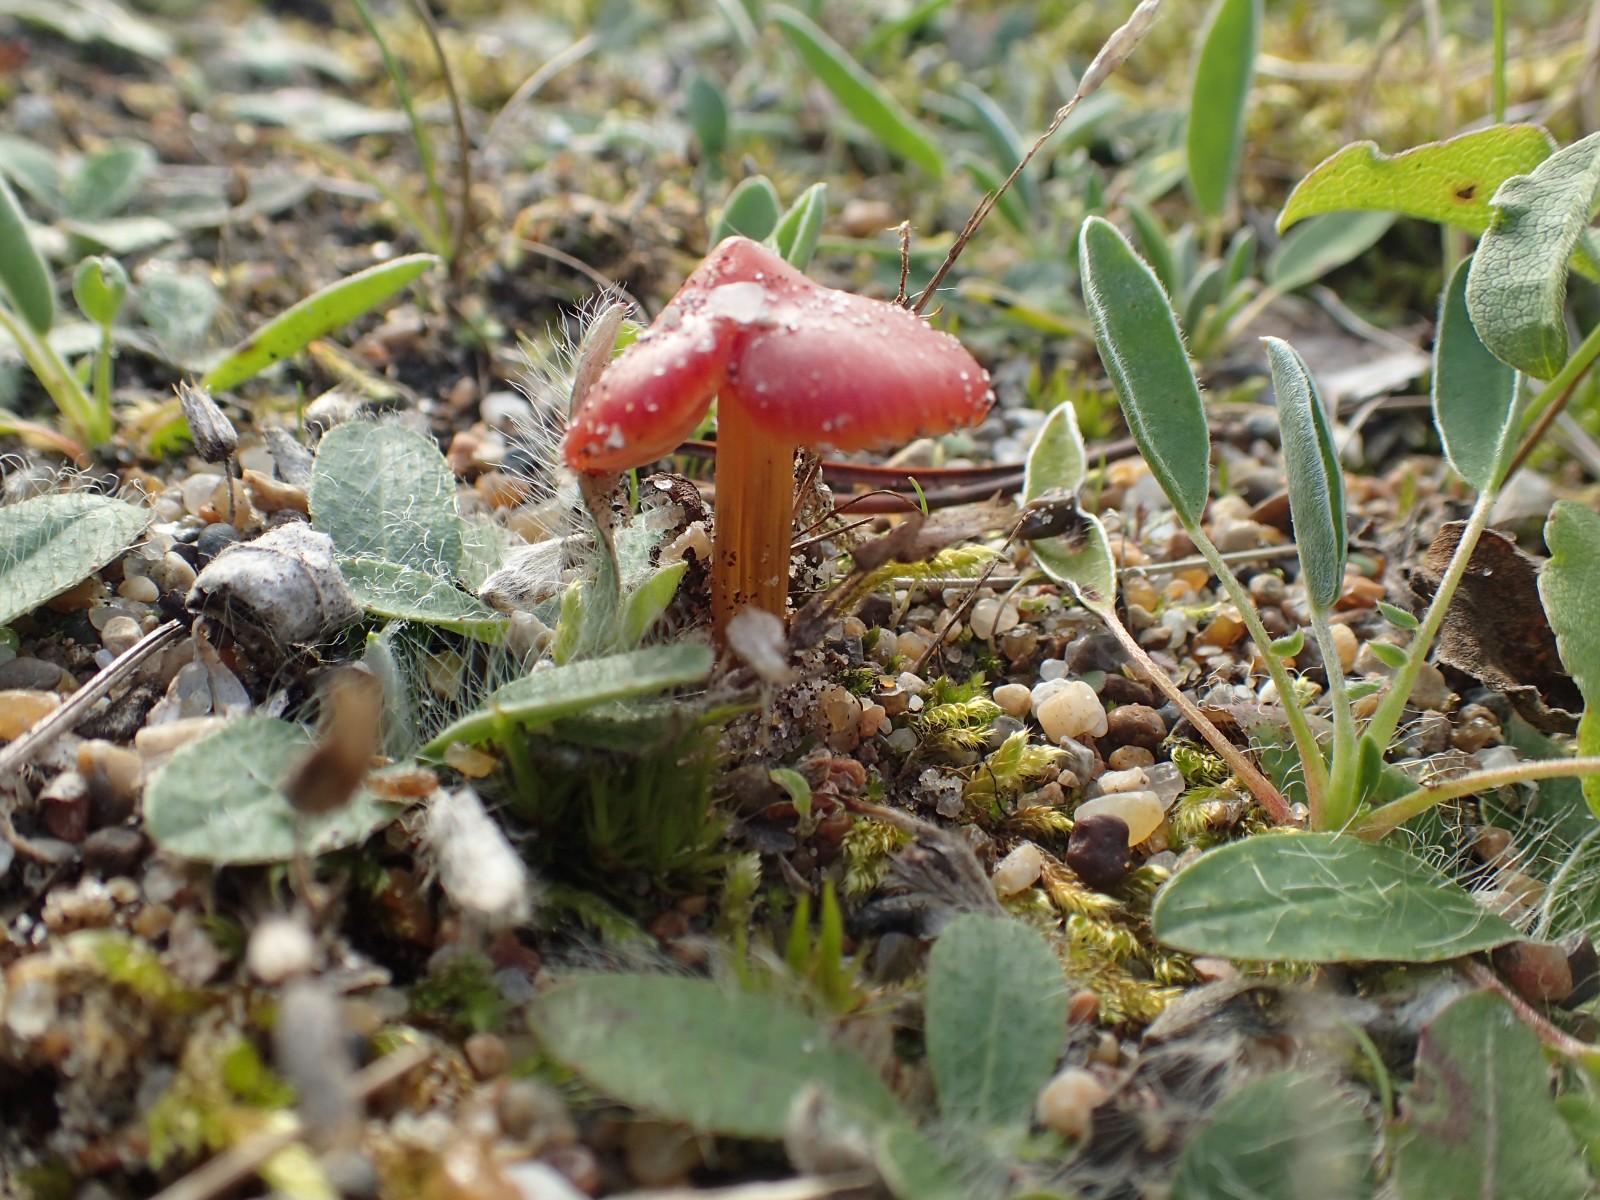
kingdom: Fungi
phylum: Basidiomycota
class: Agaricomycetes
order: Agaricales
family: Hygrophoraceae
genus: Hygrocybe
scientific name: Hygrocybe conicoides
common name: klit-vokshat
